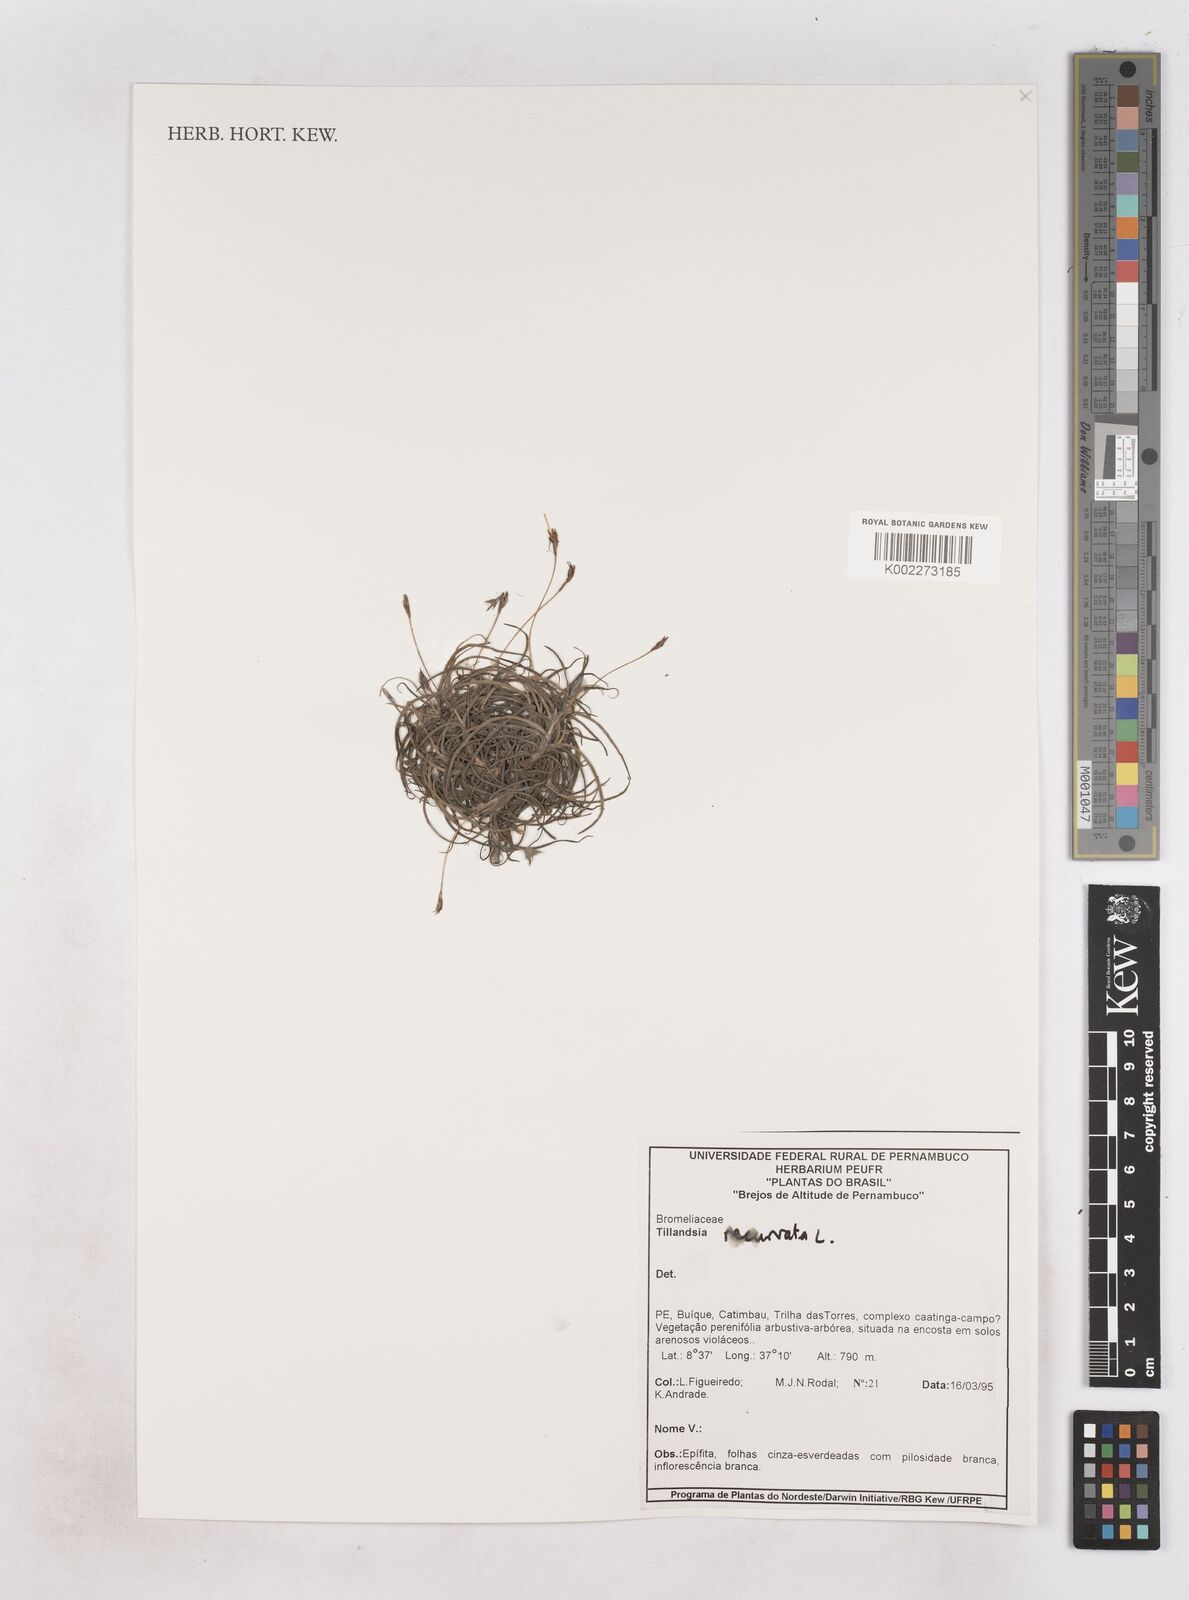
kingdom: Plantae
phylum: Tracheophyta
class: Liliopsida
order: Poales
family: Bromeliaceae
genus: Tillandsia
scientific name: Tillandsia recurvata
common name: Small ballmoss
